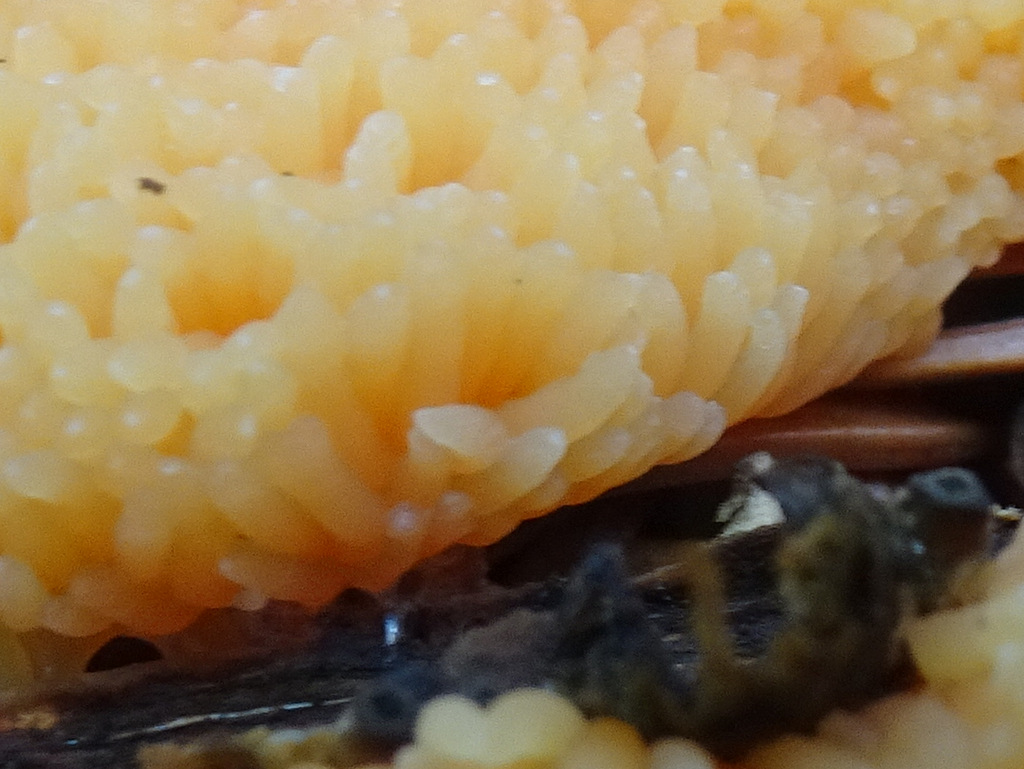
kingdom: Protozoa
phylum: Mycetozoa
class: Myxomycetes
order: Cribrariales
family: Tubiferaceae
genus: Tubifera
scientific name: Tubifera ferruginosa
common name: kanel-støvrør
